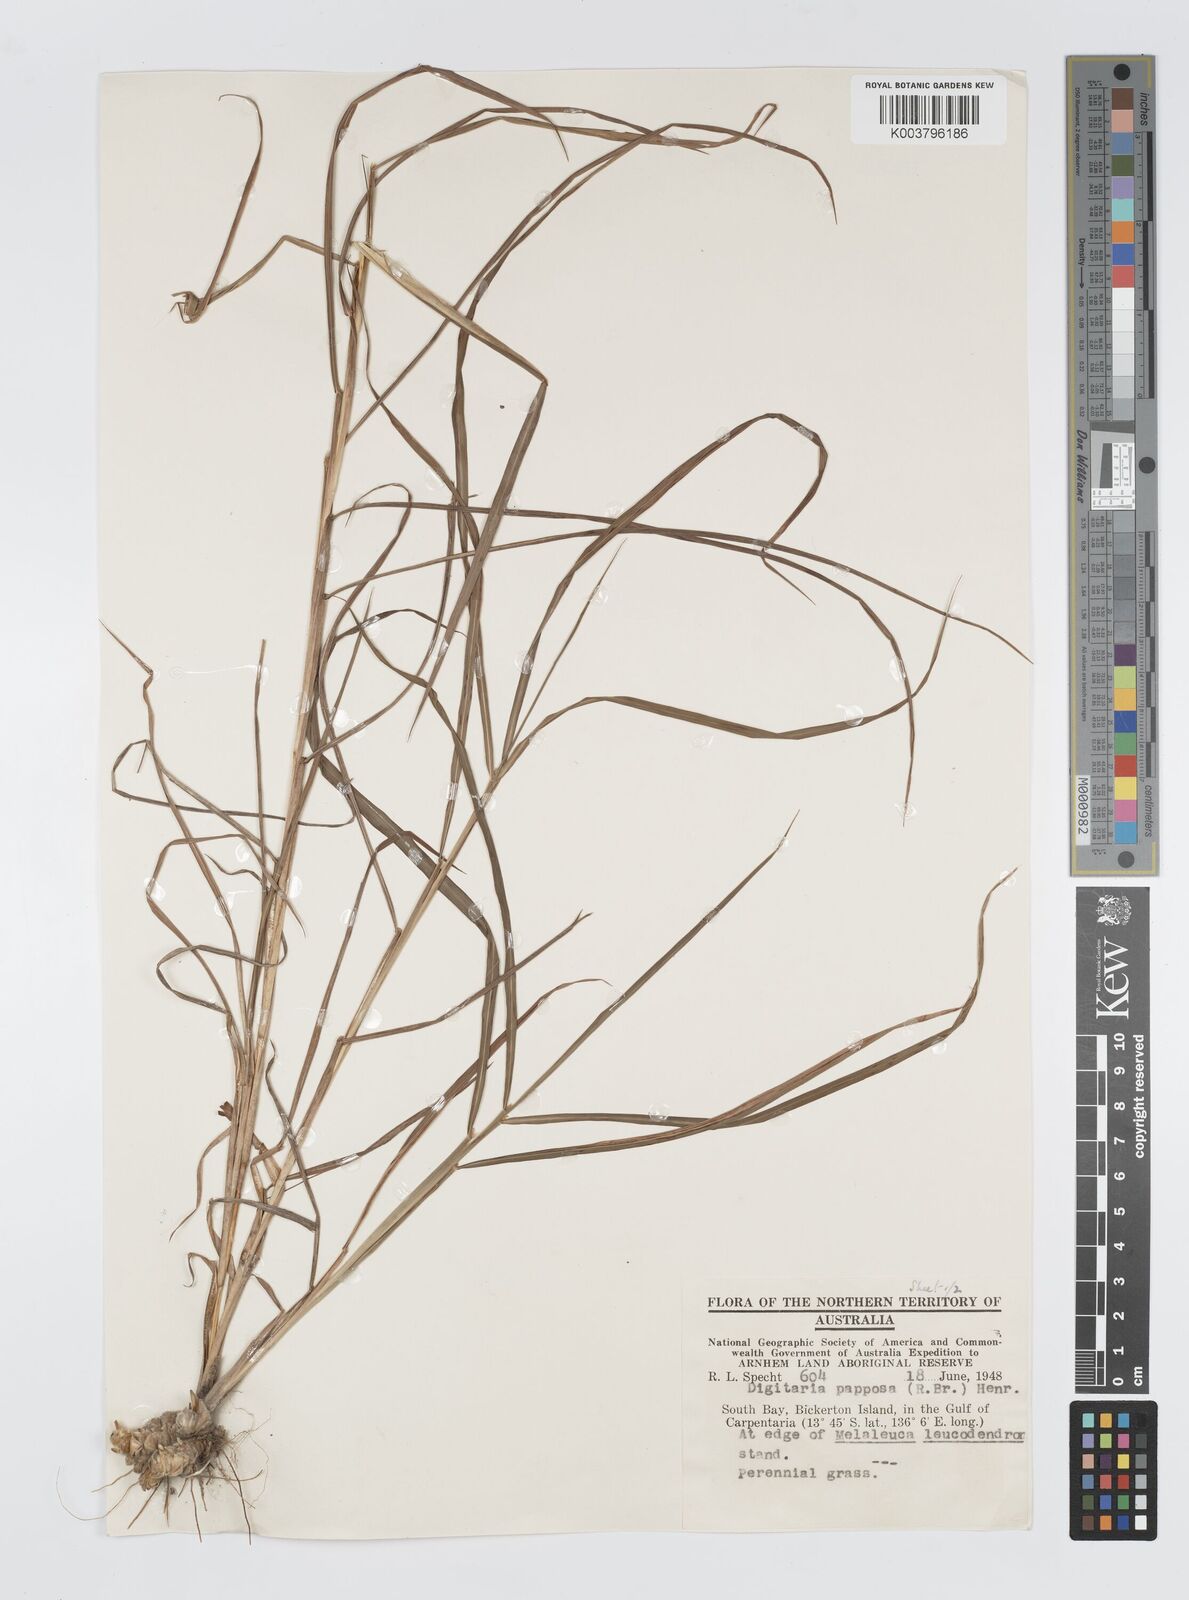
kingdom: Plantae
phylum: Tracheophyta
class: Liliopsida
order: Poales
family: Poaceae
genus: Digitaria
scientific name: Digitaria papposa
